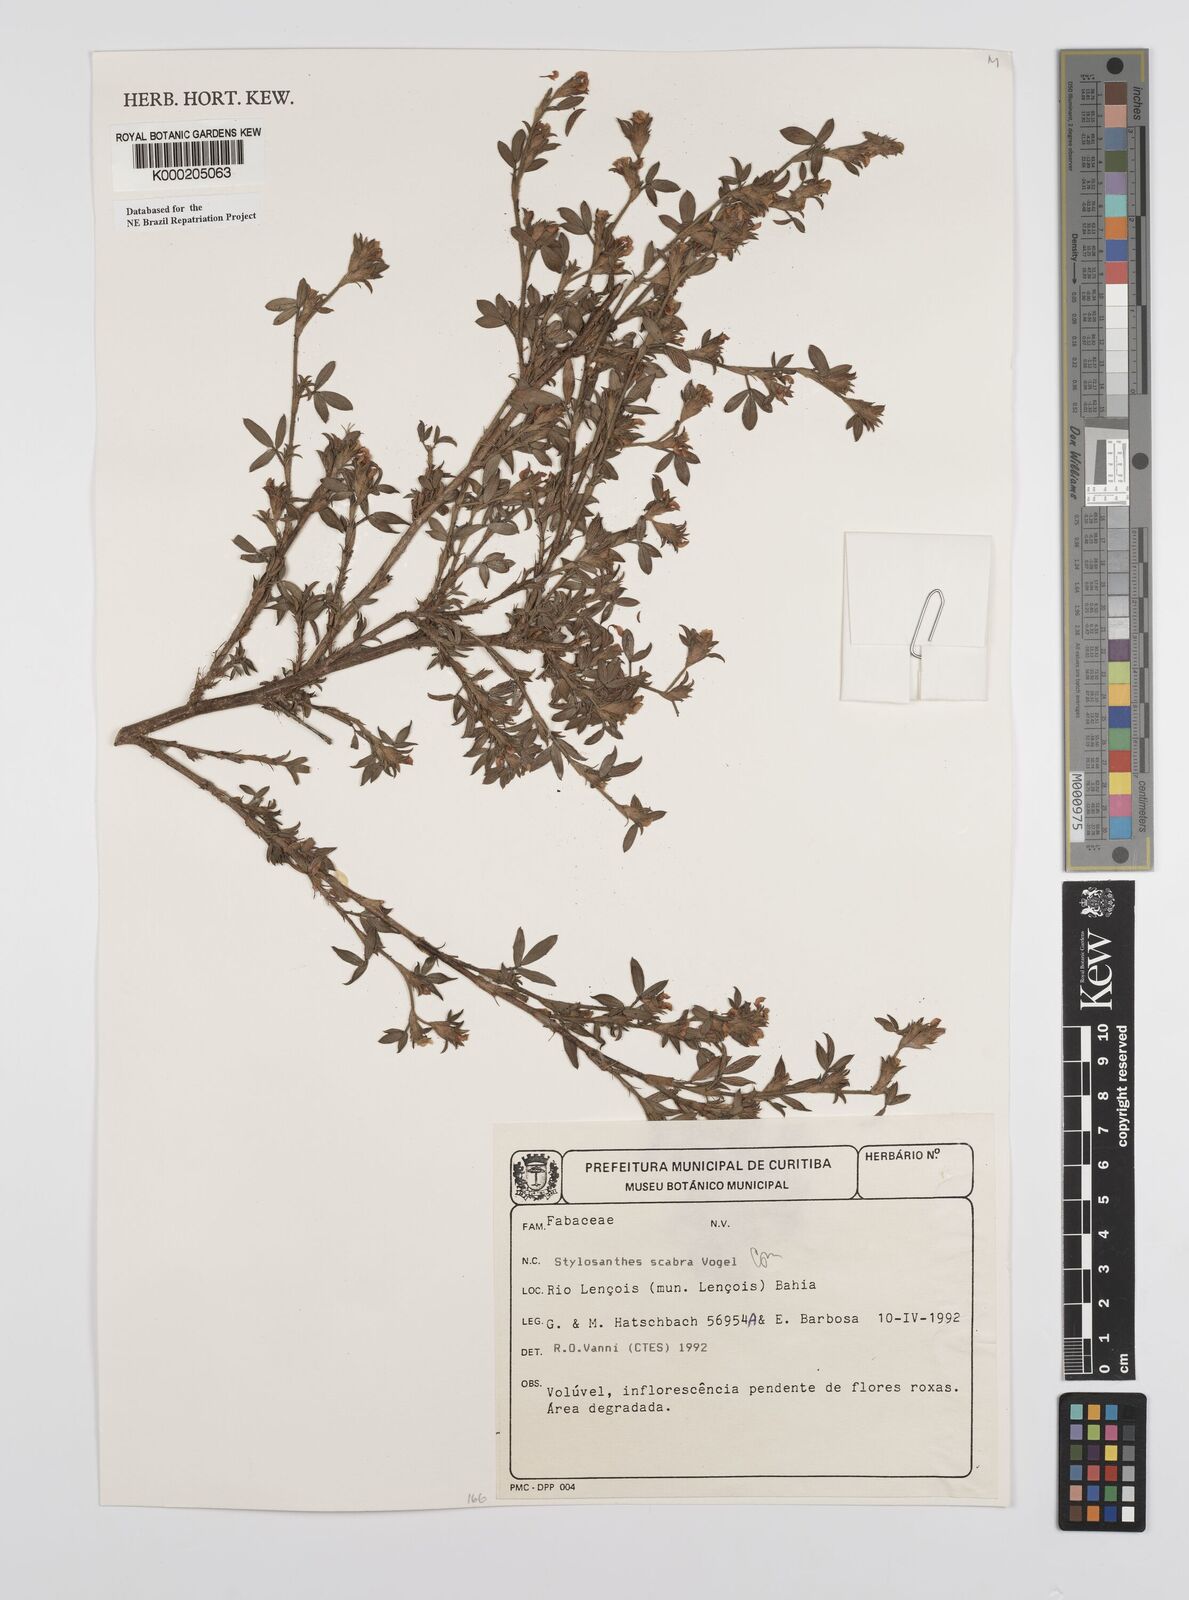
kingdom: Plantae
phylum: Tracheophyta
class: Magnoliopsida
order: Fabales
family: Fabaceae
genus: Stylosanthes
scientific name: Stylosanthes scabra
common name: Pencilflower
